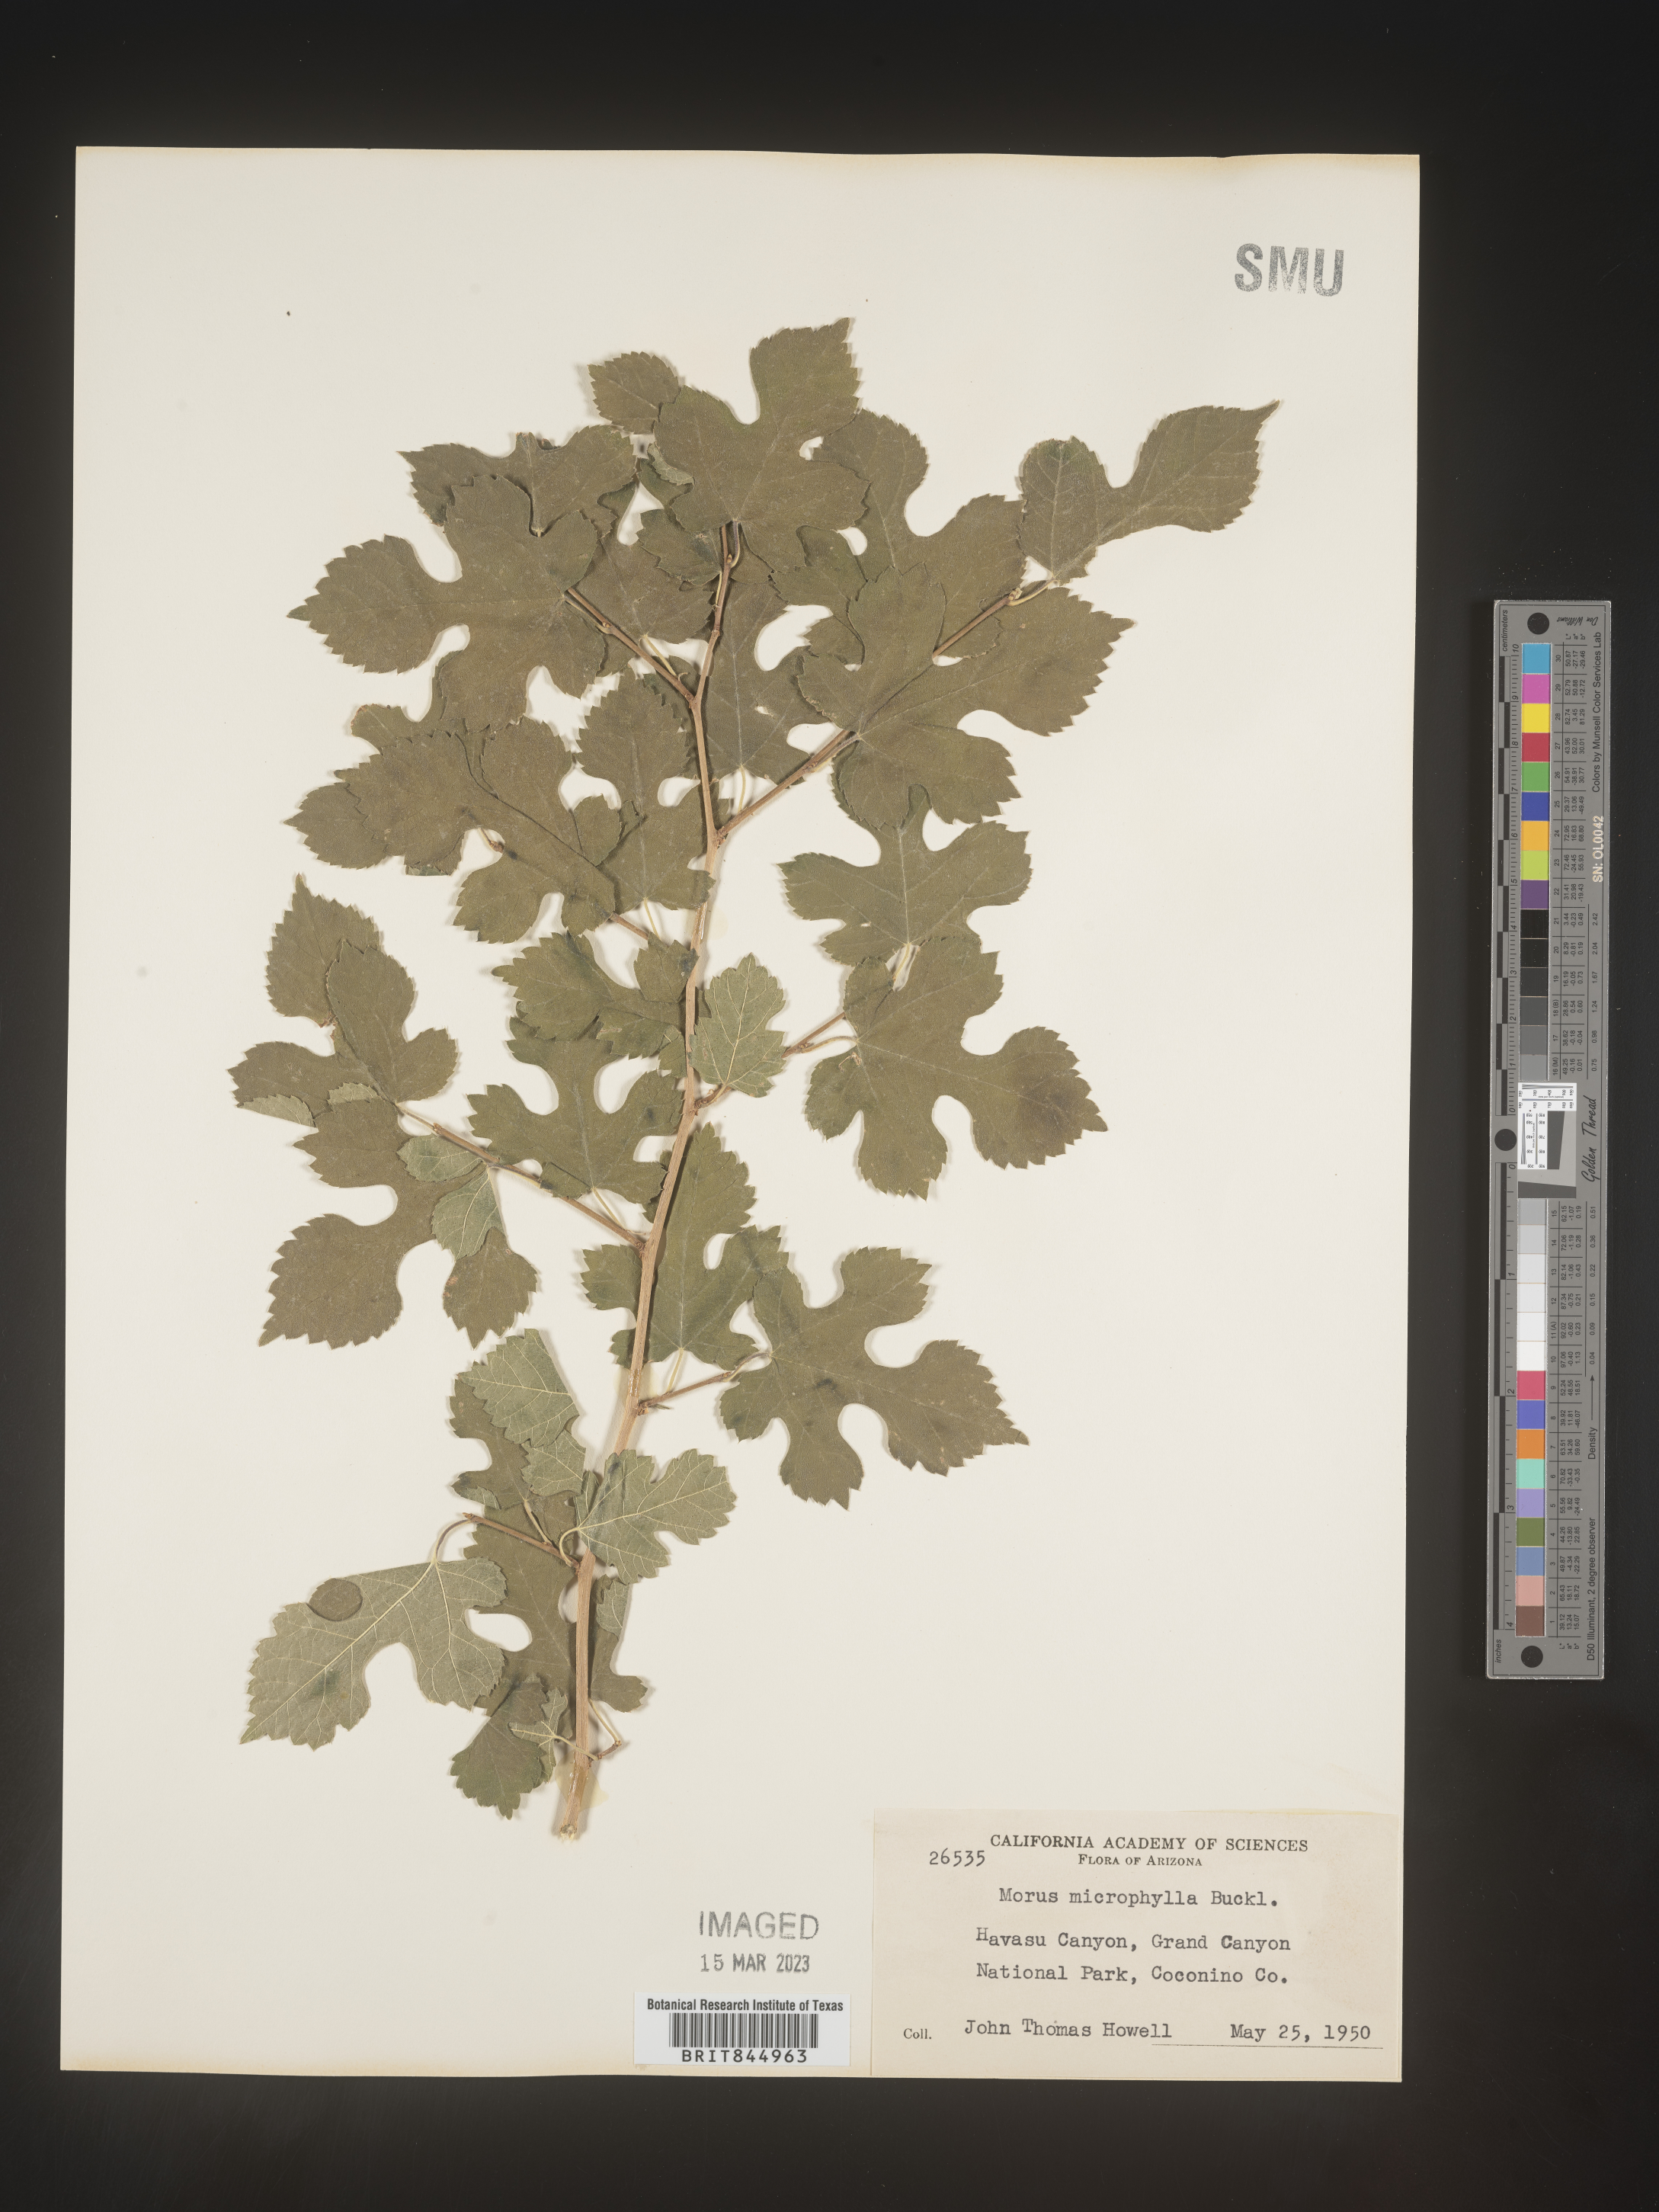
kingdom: Plantae
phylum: Tracheophyta
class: Magnoliopsida
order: Rosales
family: Moraceae
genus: Morus
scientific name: Morus microphylla
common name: Mexican mulberry
